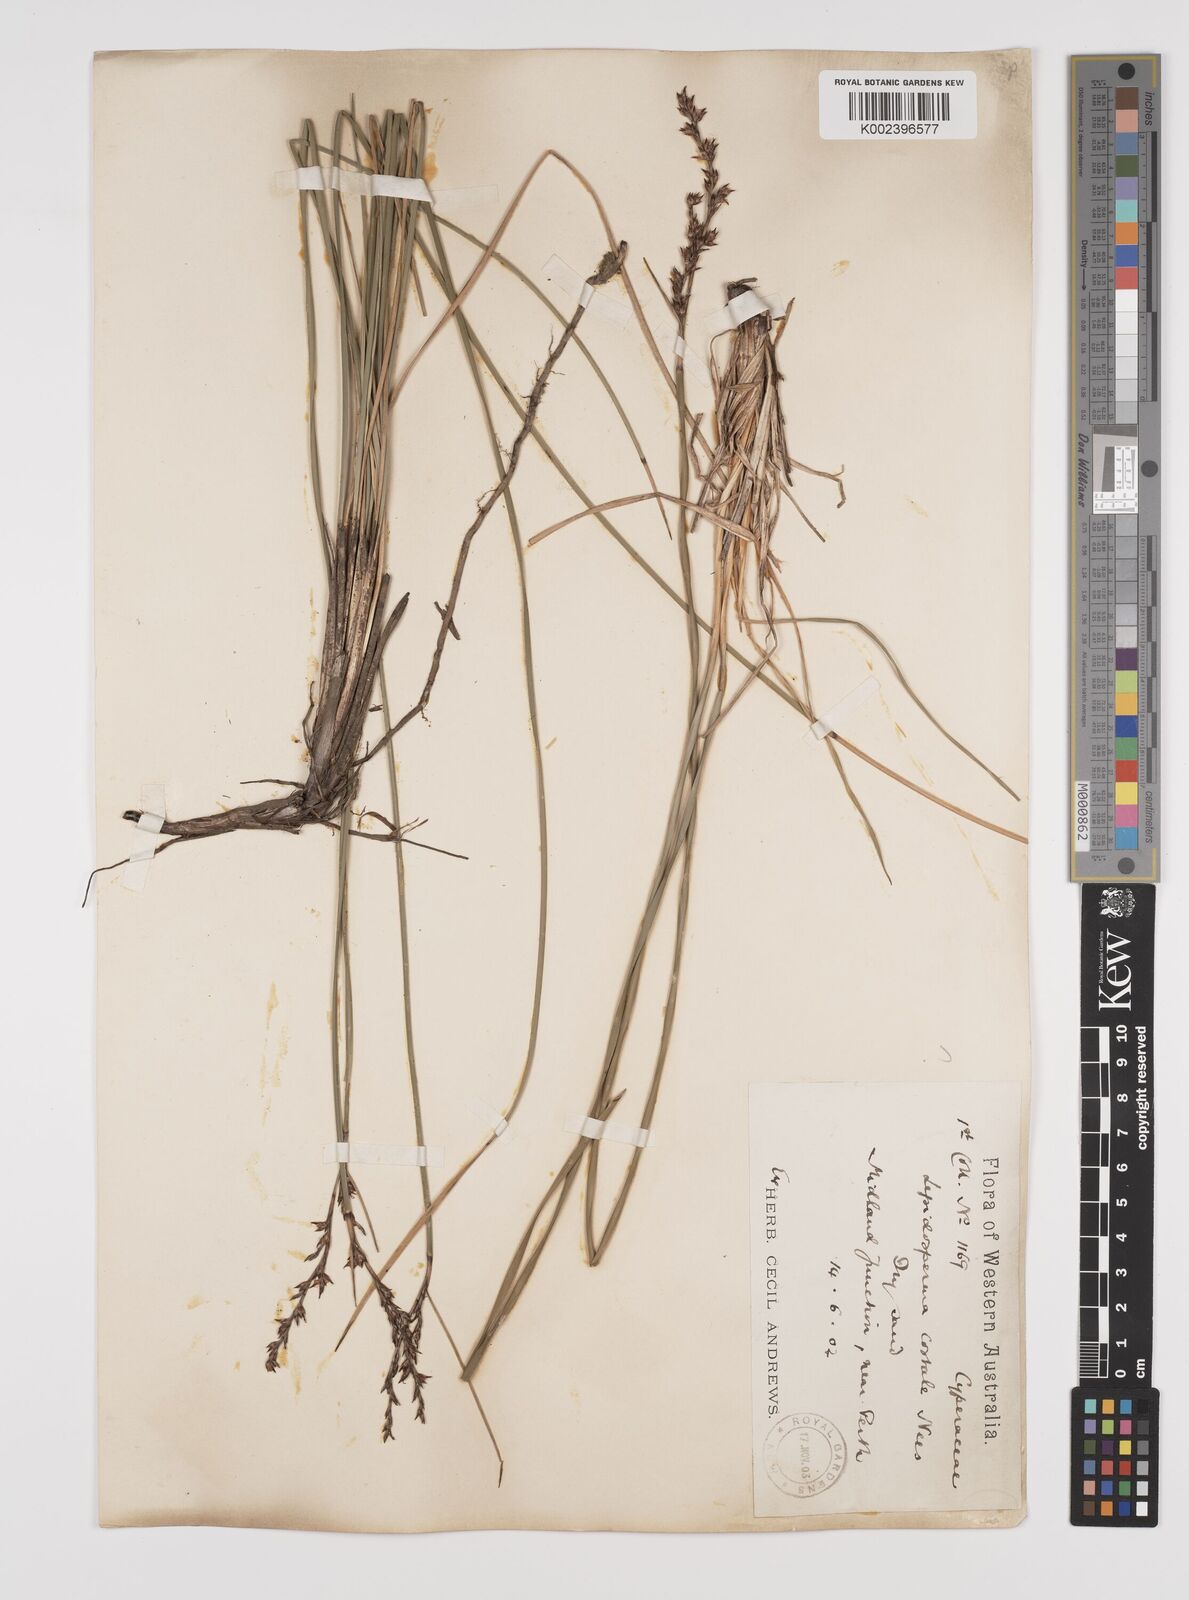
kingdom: Plantae
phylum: Tracheophyta
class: Liliopsida
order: Poales
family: Cyperaceae
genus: Lepidosperma
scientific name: Lepidosperma angustatum
